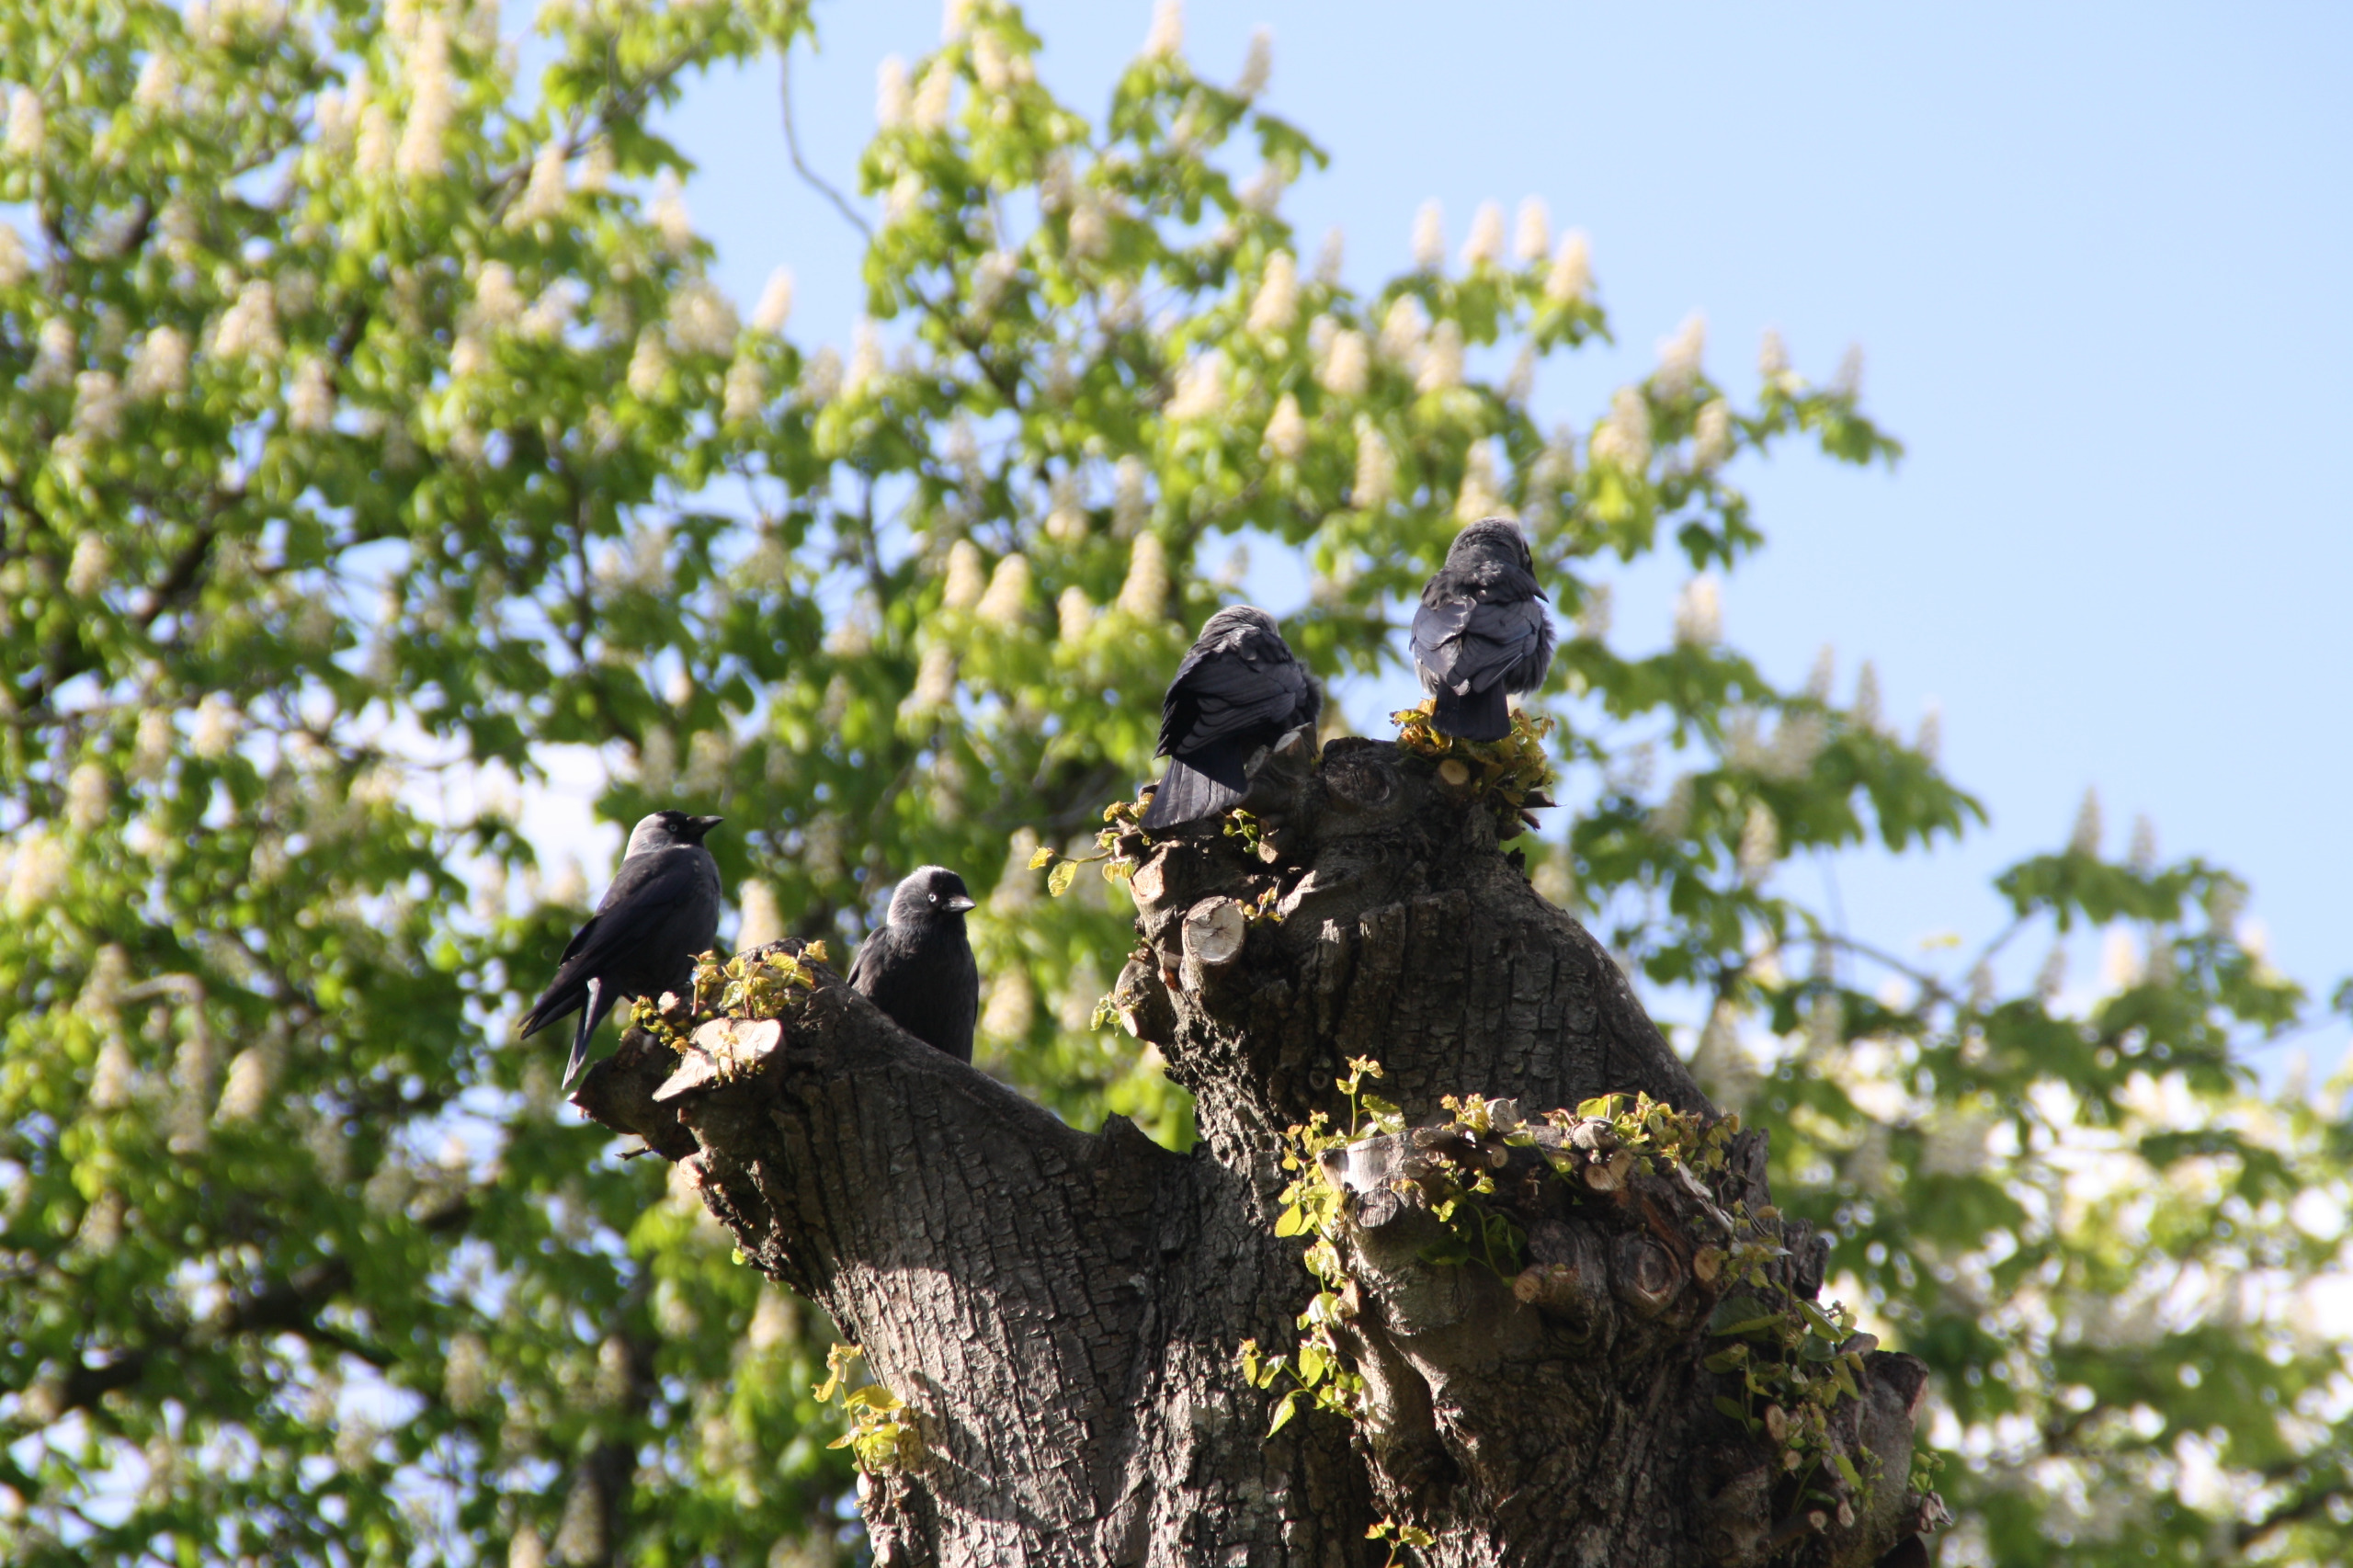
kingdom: Animalia
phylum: Chordata
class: Aves
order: Passeriformes
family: Corvidae
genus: Coloeus
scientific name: Coloeus monedula
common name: Allike
